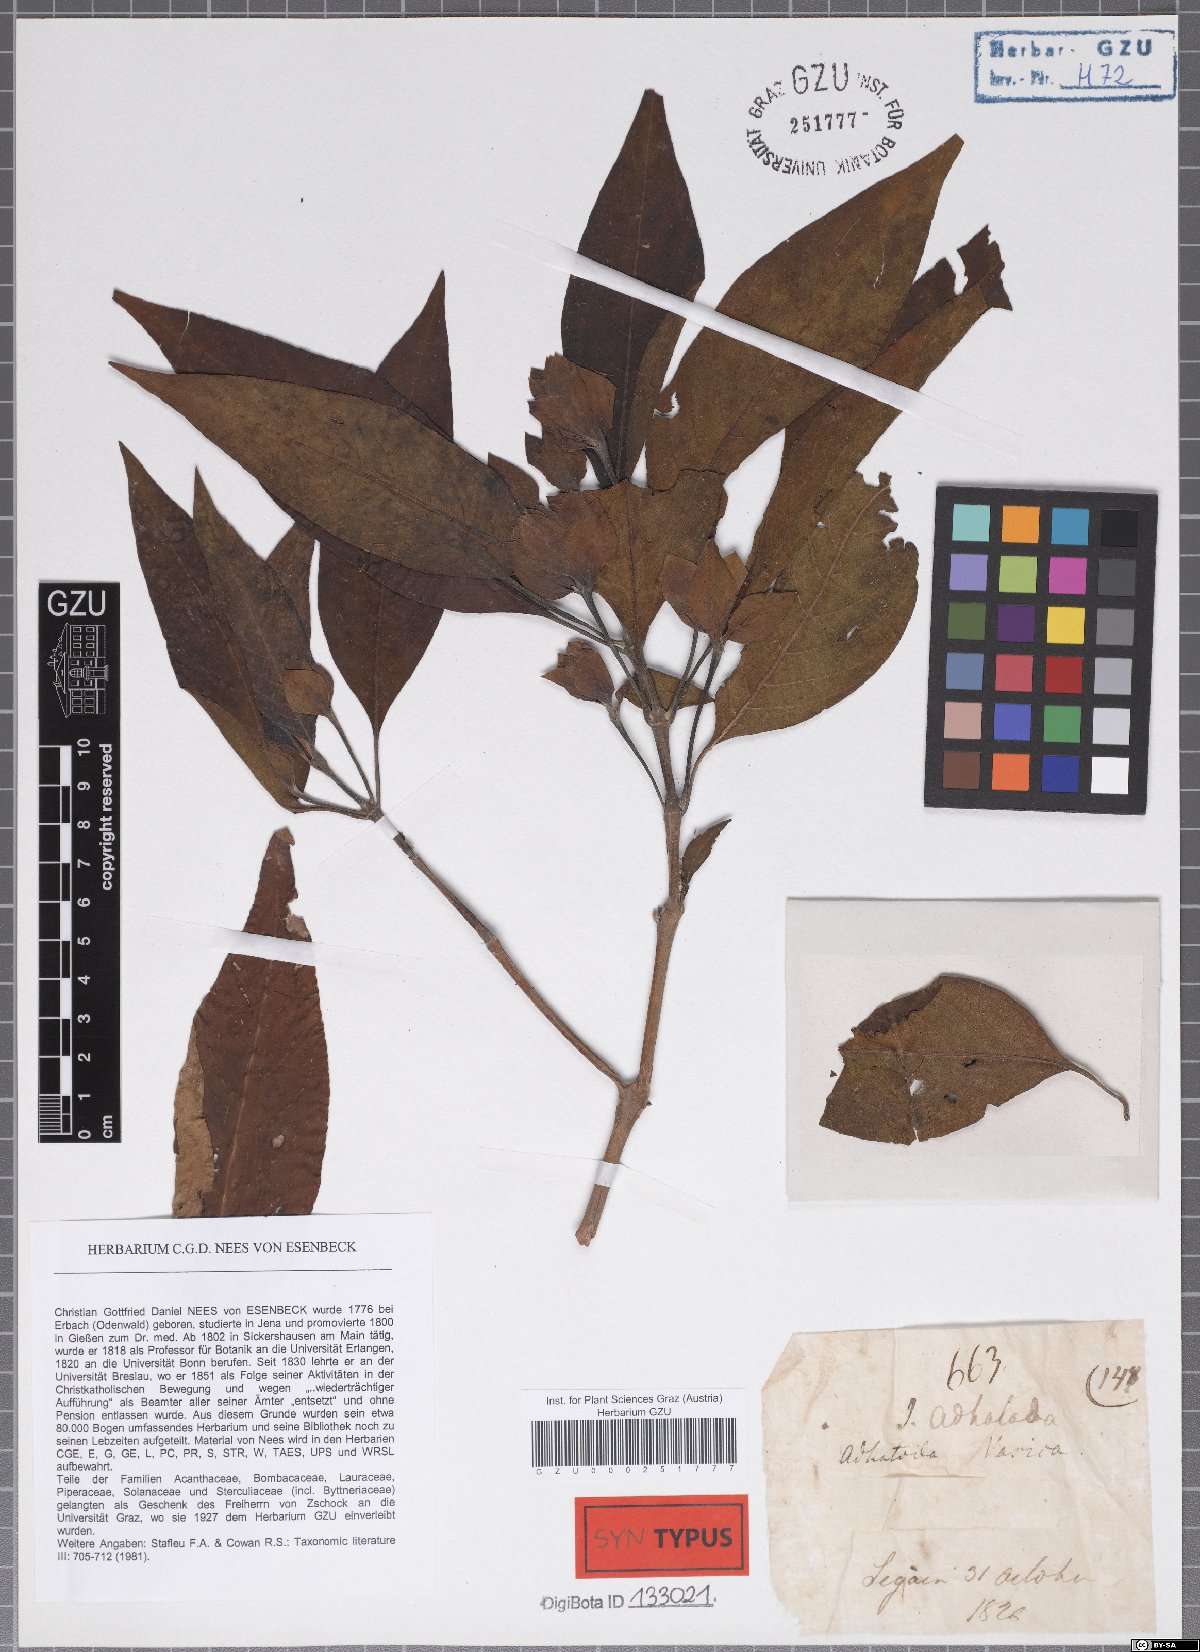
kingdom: Plantae
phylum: Tracheophyta
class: Magnoliopsida
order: Lamiales
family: Acanthaceae
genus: Justicia
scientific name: Justicia adhatoda
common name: Malabar nut
